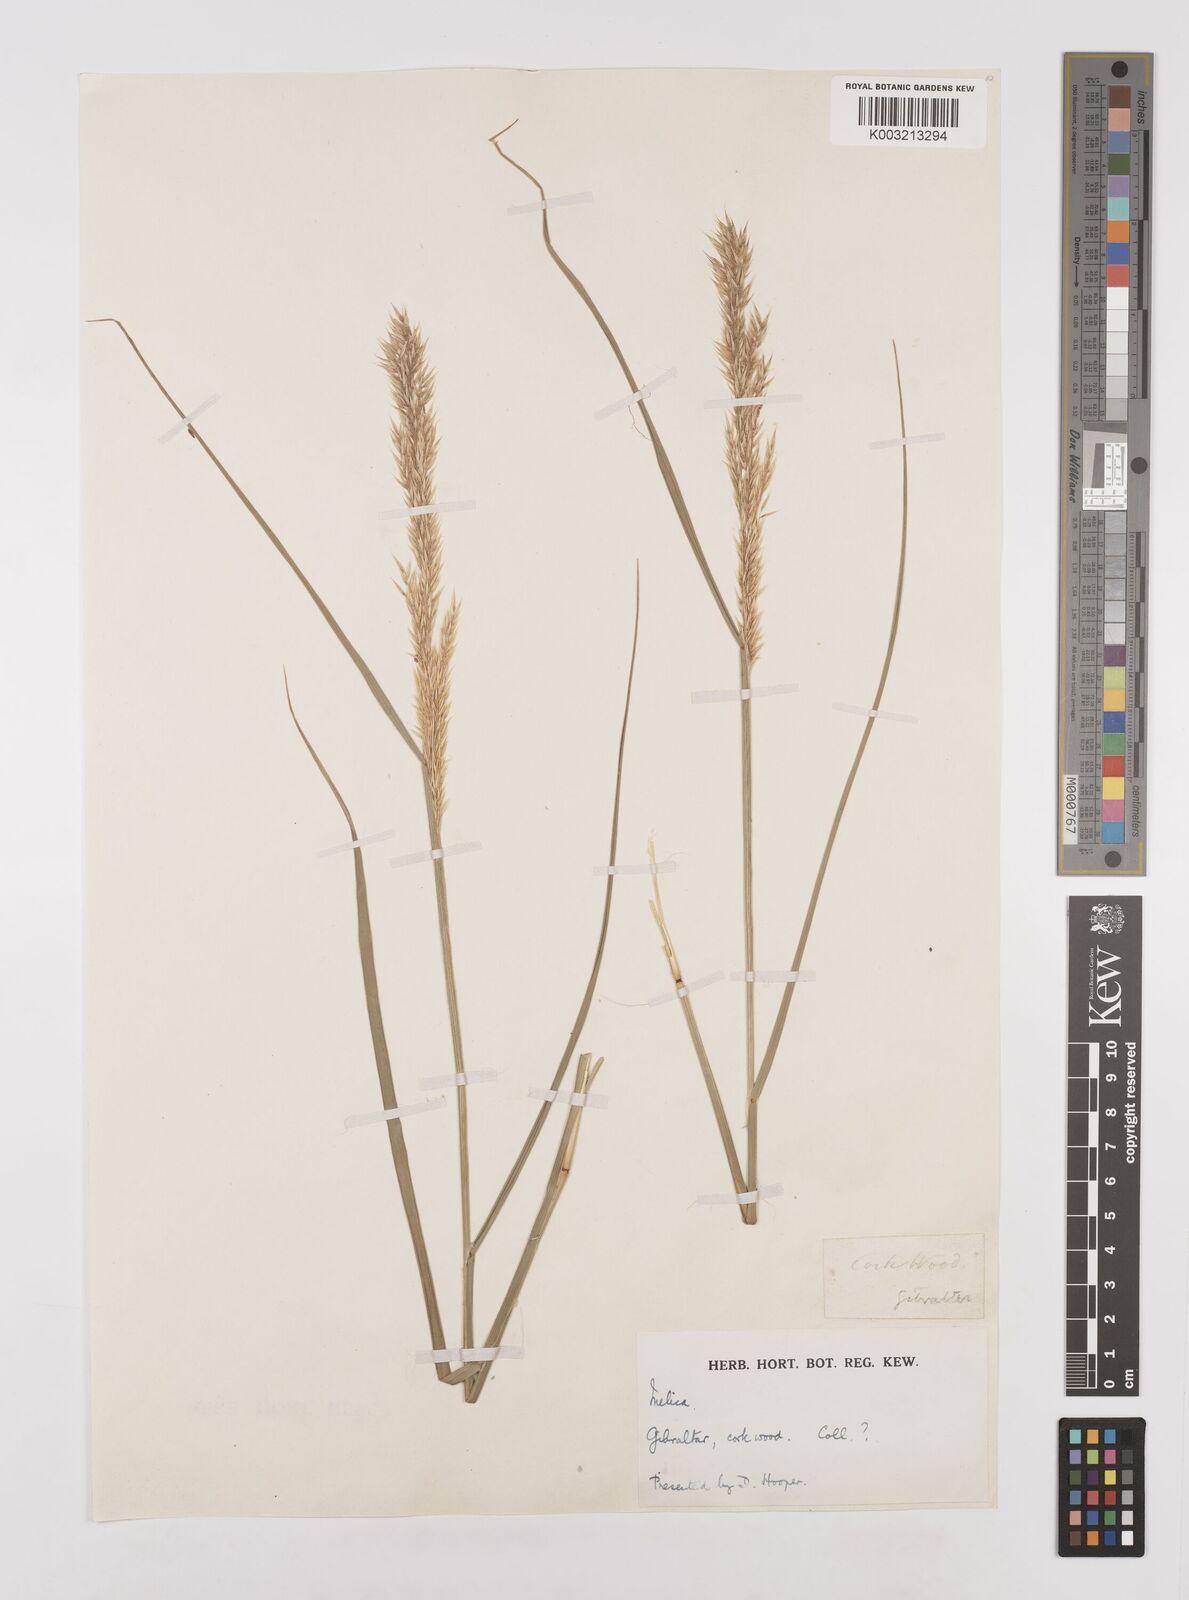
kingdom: Plantae
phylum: Tracheophyta
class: Liliopsida
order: Poales
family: Poaceae
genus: Melica
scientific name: Melica
